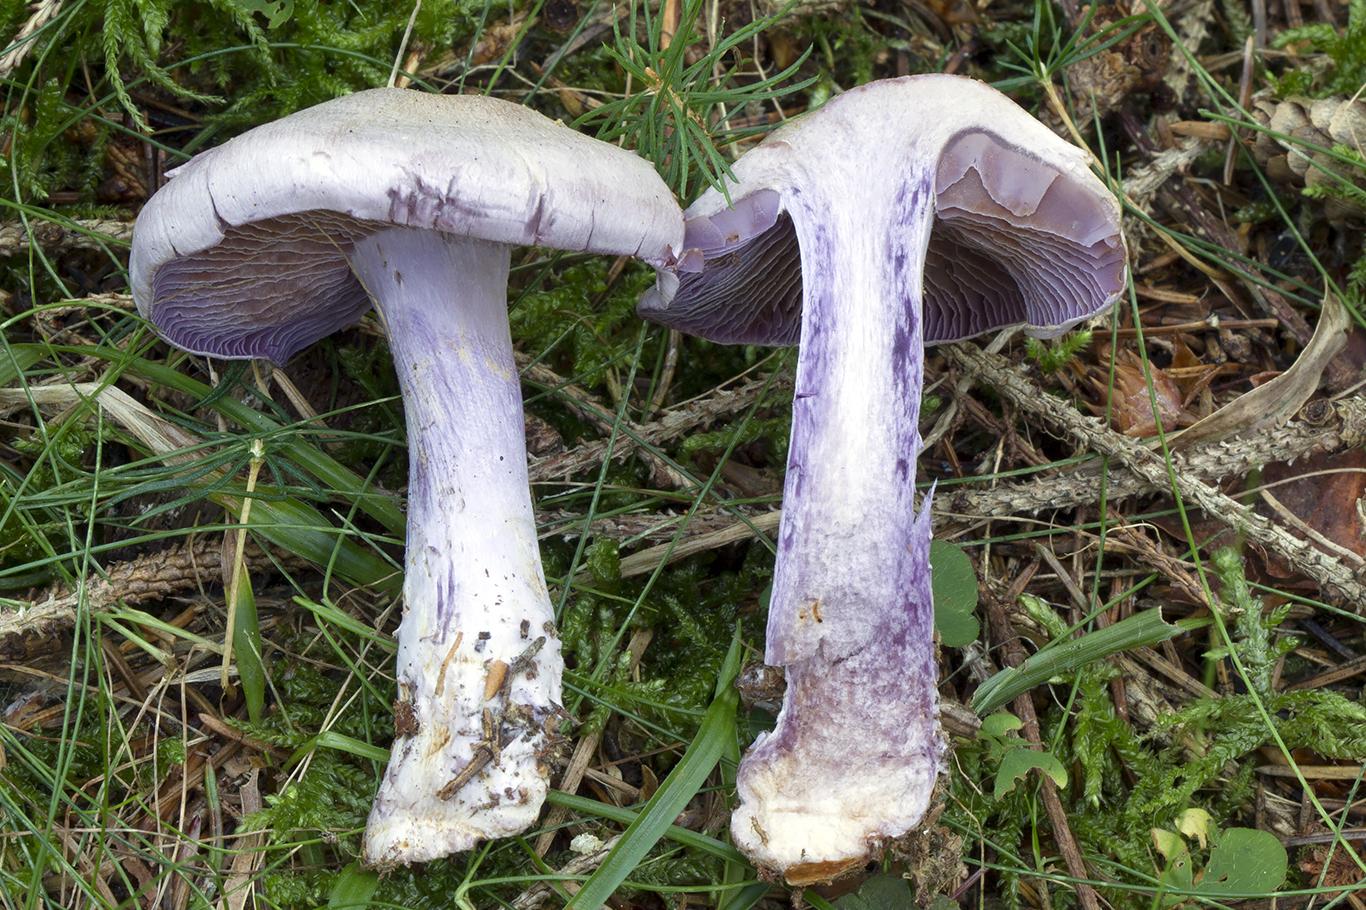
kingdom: Fungi
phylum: Basidiomycota
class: Agaricomycetes
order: Agaricales
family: Cortinariaceae
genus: Cortinarius
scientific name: Cortinarius camphoratus
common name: stinkende slørhat
